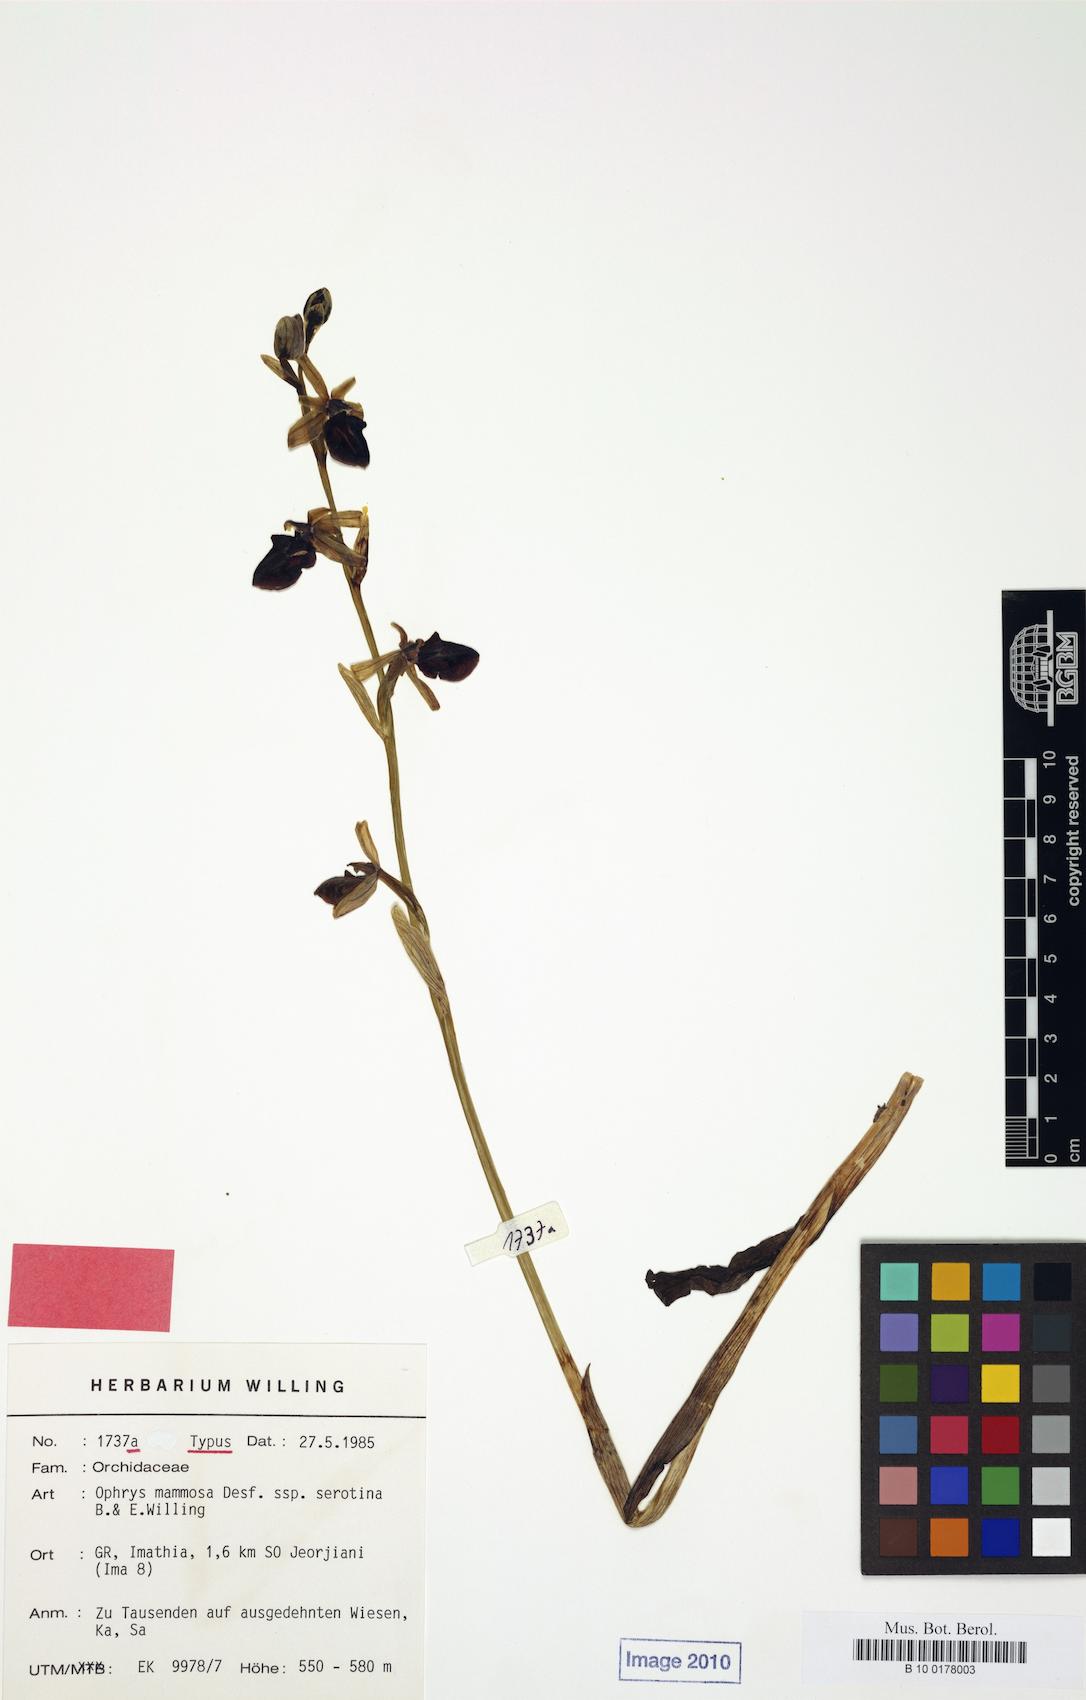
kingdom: Plantae
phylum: Tracheophyta
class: Liliopsida
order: Asparagales
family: Orchidaceae
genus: Ophrys
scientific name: Ophrys sphegodes
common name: Early spider-orchid
